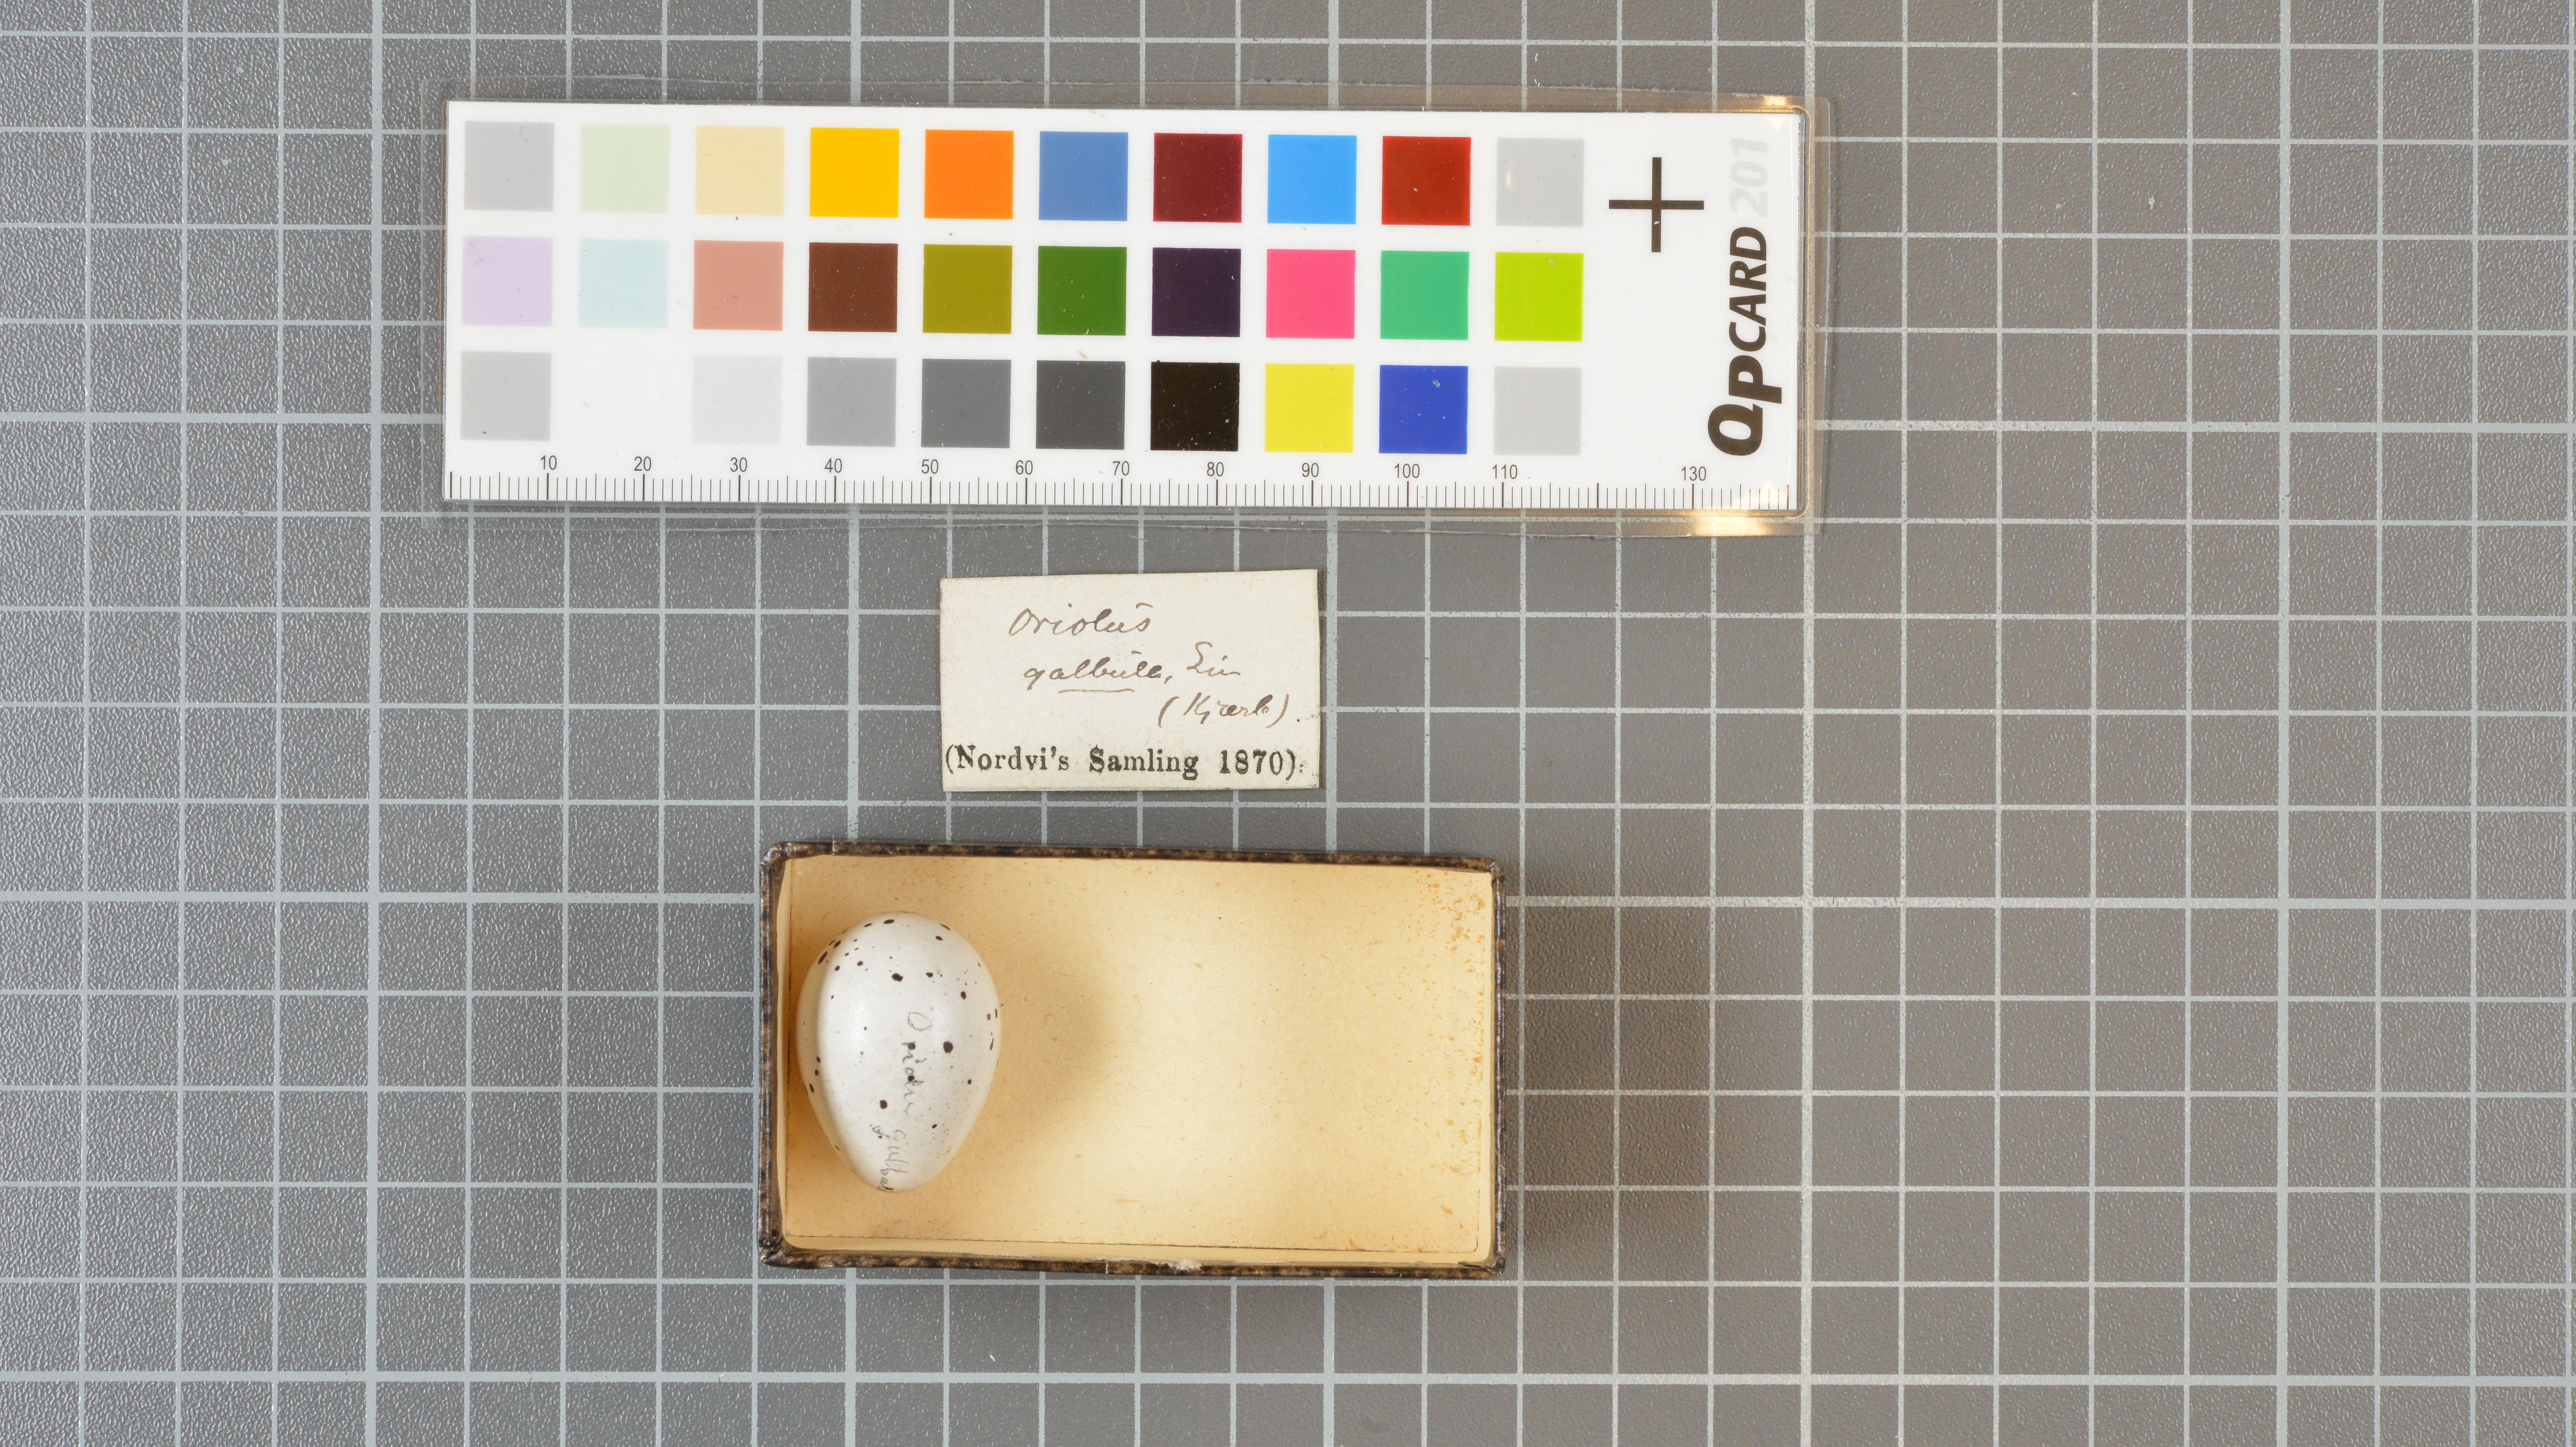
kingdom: Animalia
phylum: Chordata
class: Aves
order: Passeriformes
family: Oriolidae
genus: Oriolus
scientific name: Oriolus oriolus
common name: Eurasian golden oriole
